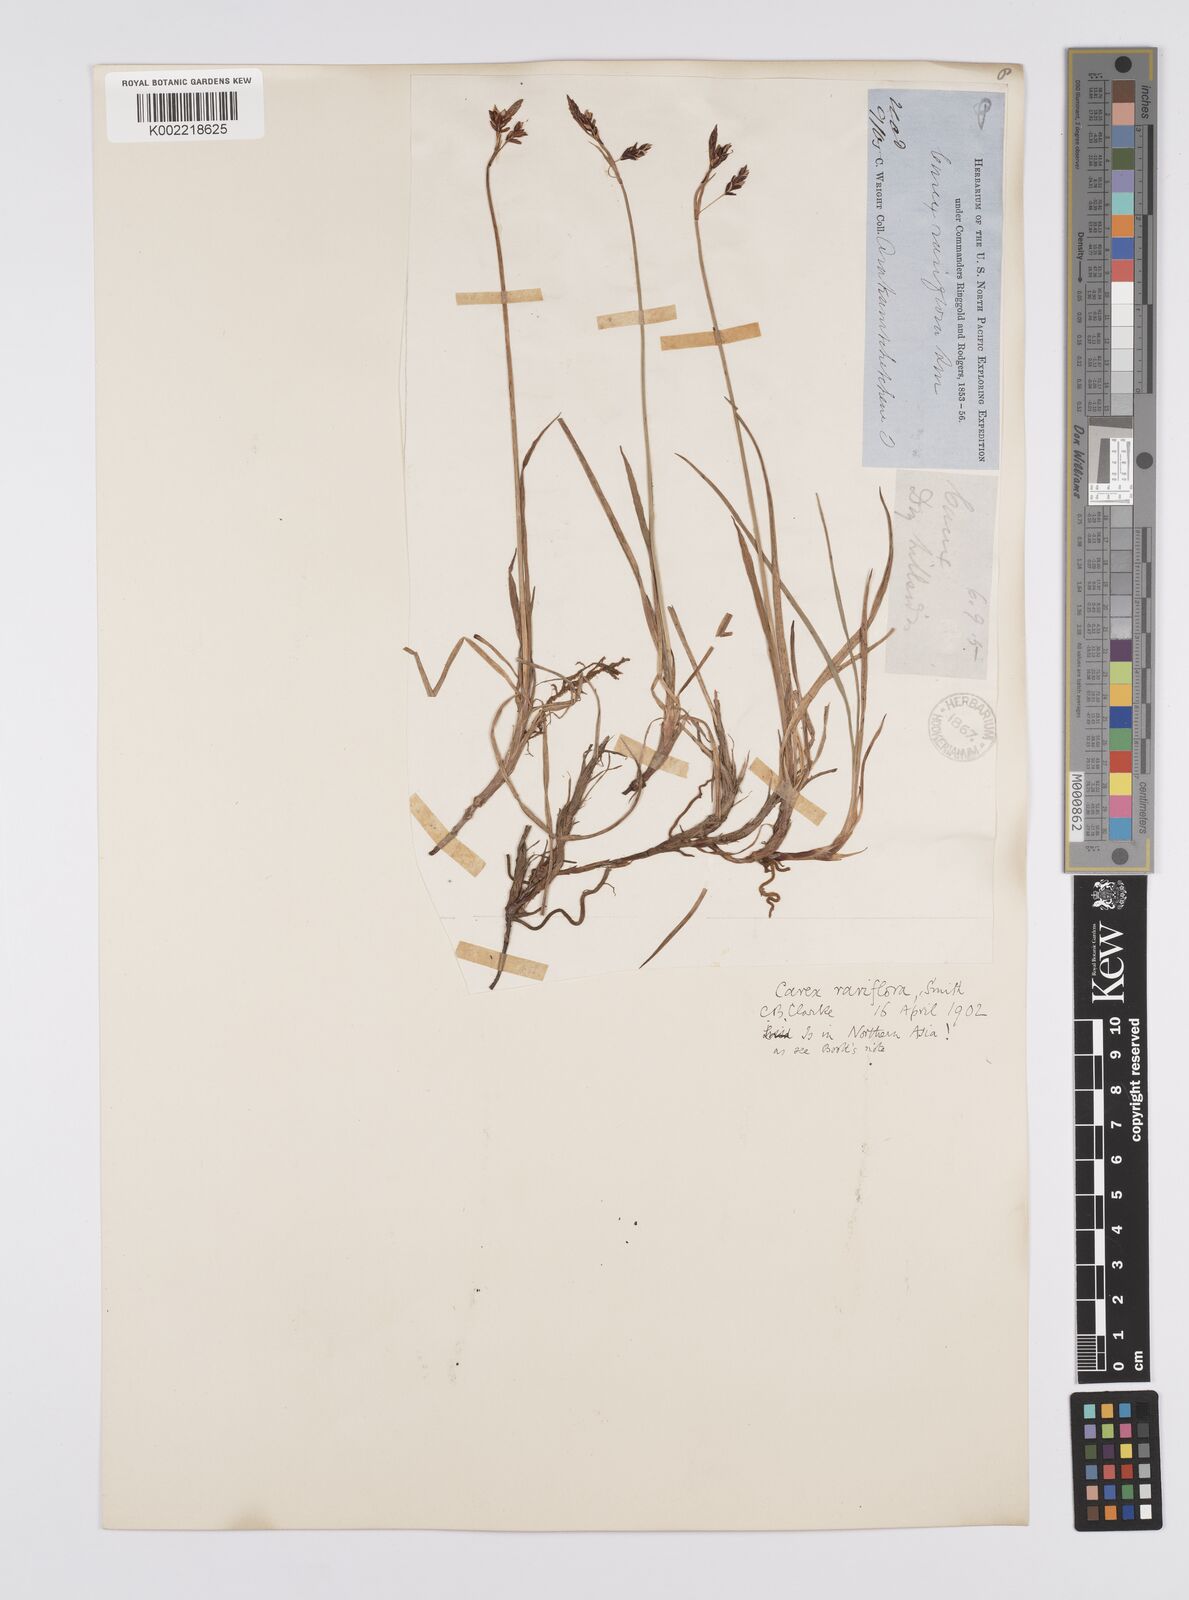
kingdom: Plantae
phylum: Tracheophyta
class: Liliopsida
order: Poales
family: Cyperaceae
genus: Carex
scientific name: Carex rariflora
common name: Loose-flowered alpine sedge
